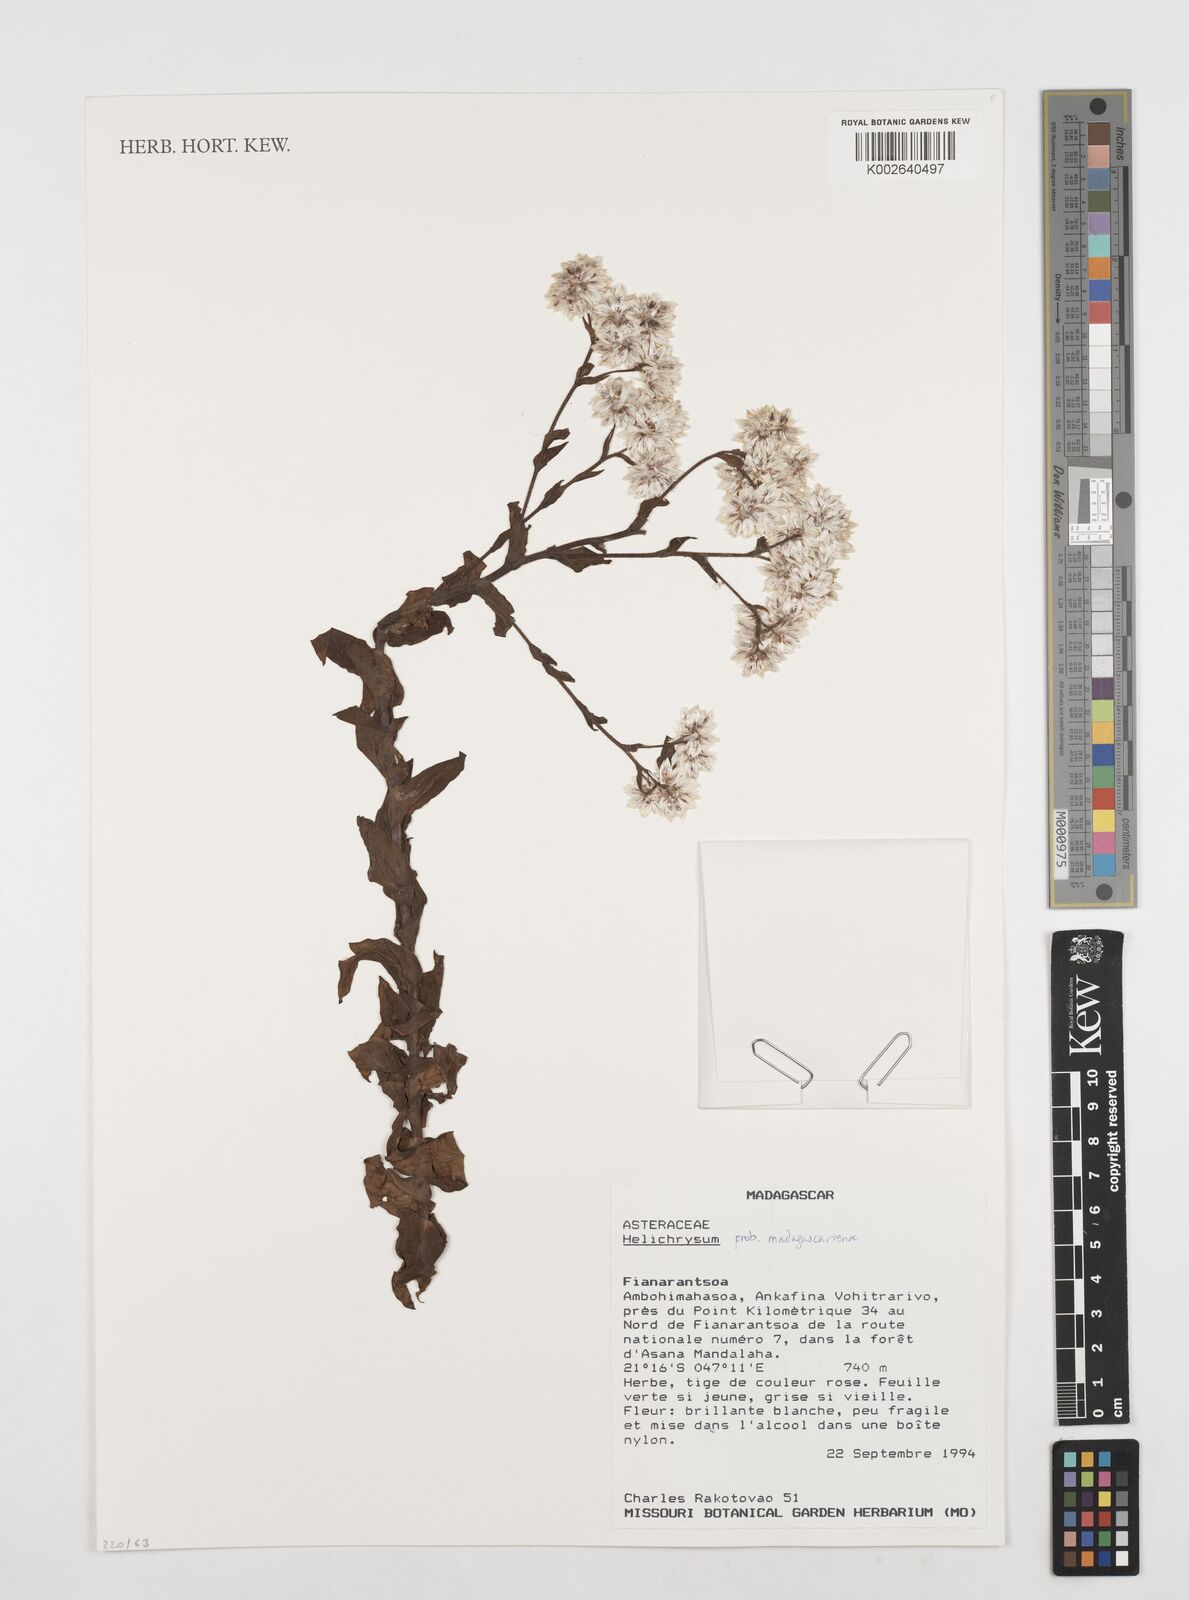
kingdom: Plantae
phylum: Tracheophyta
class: Magnoliopsida
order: Asterales
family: Asteraceae
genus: Helichrysum
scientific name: Helichrysum madagascariense
